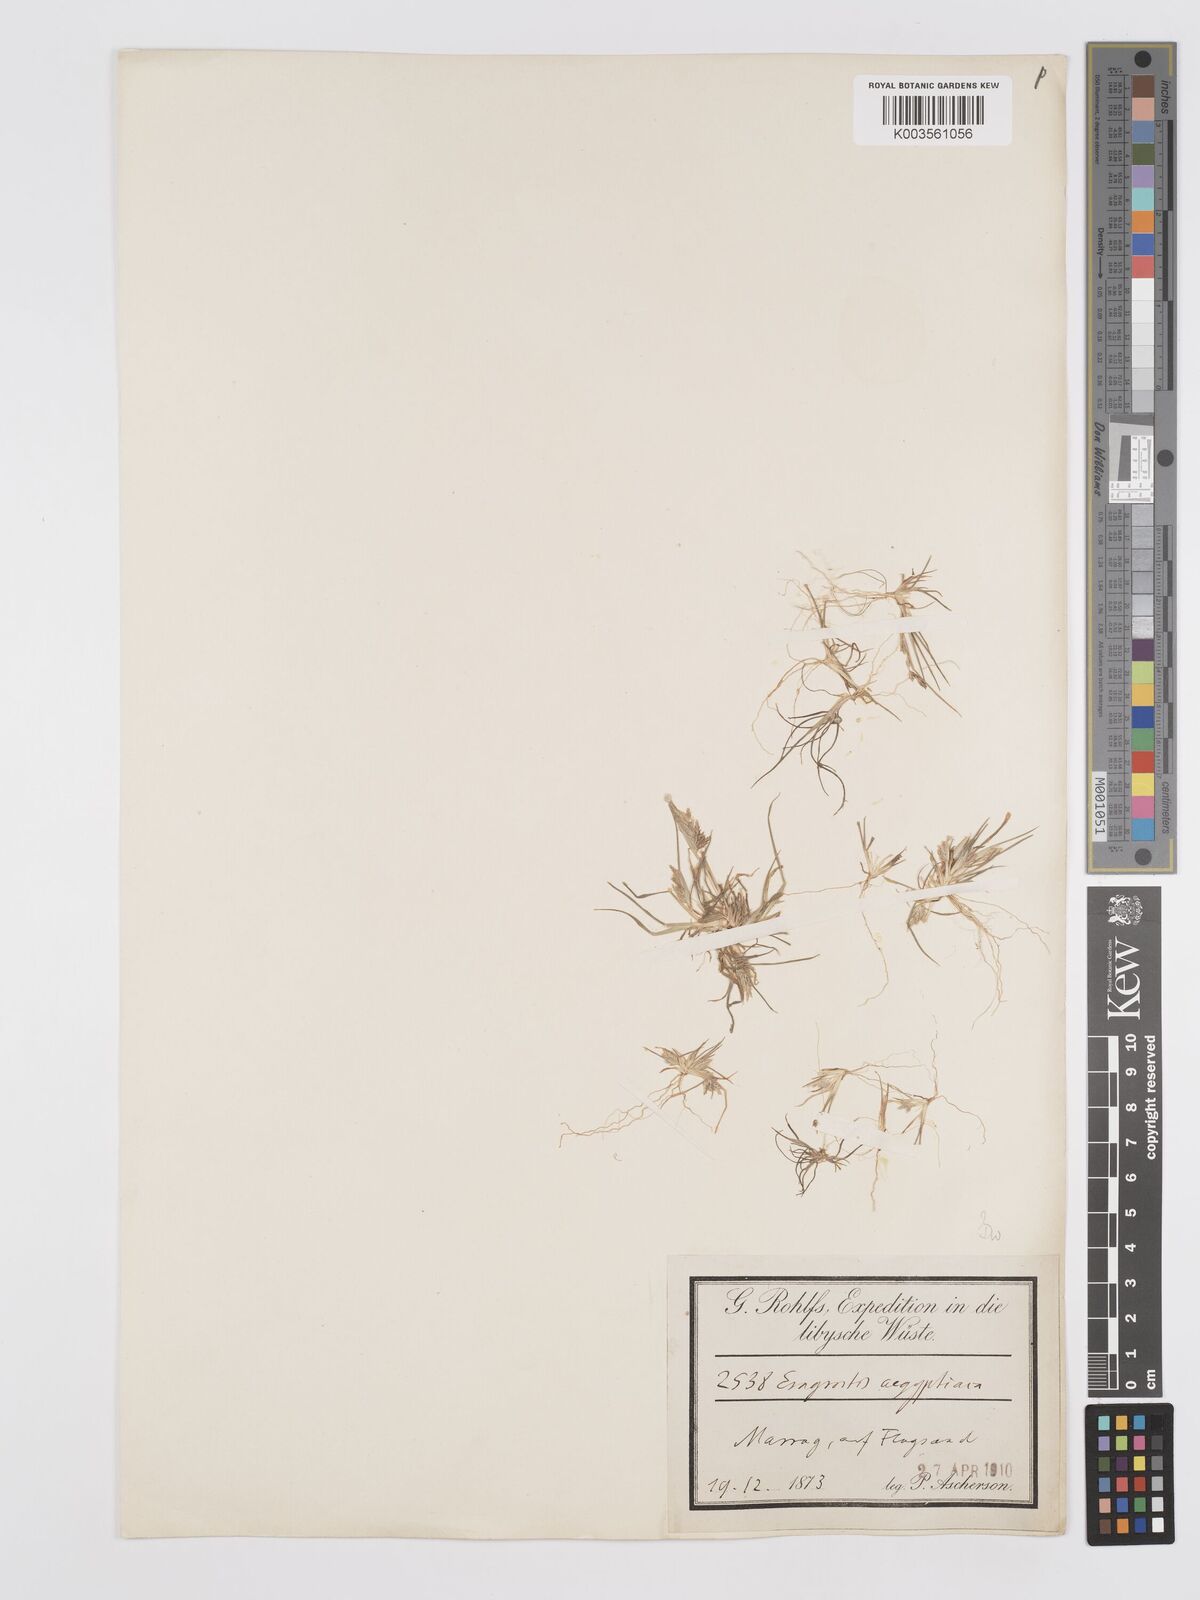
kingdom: Plantae
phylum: Tracheophyta
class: Liliopsida
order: Poales
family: Poaceae
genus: Eragrostis
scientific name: Eragrostis aegyptiaca
